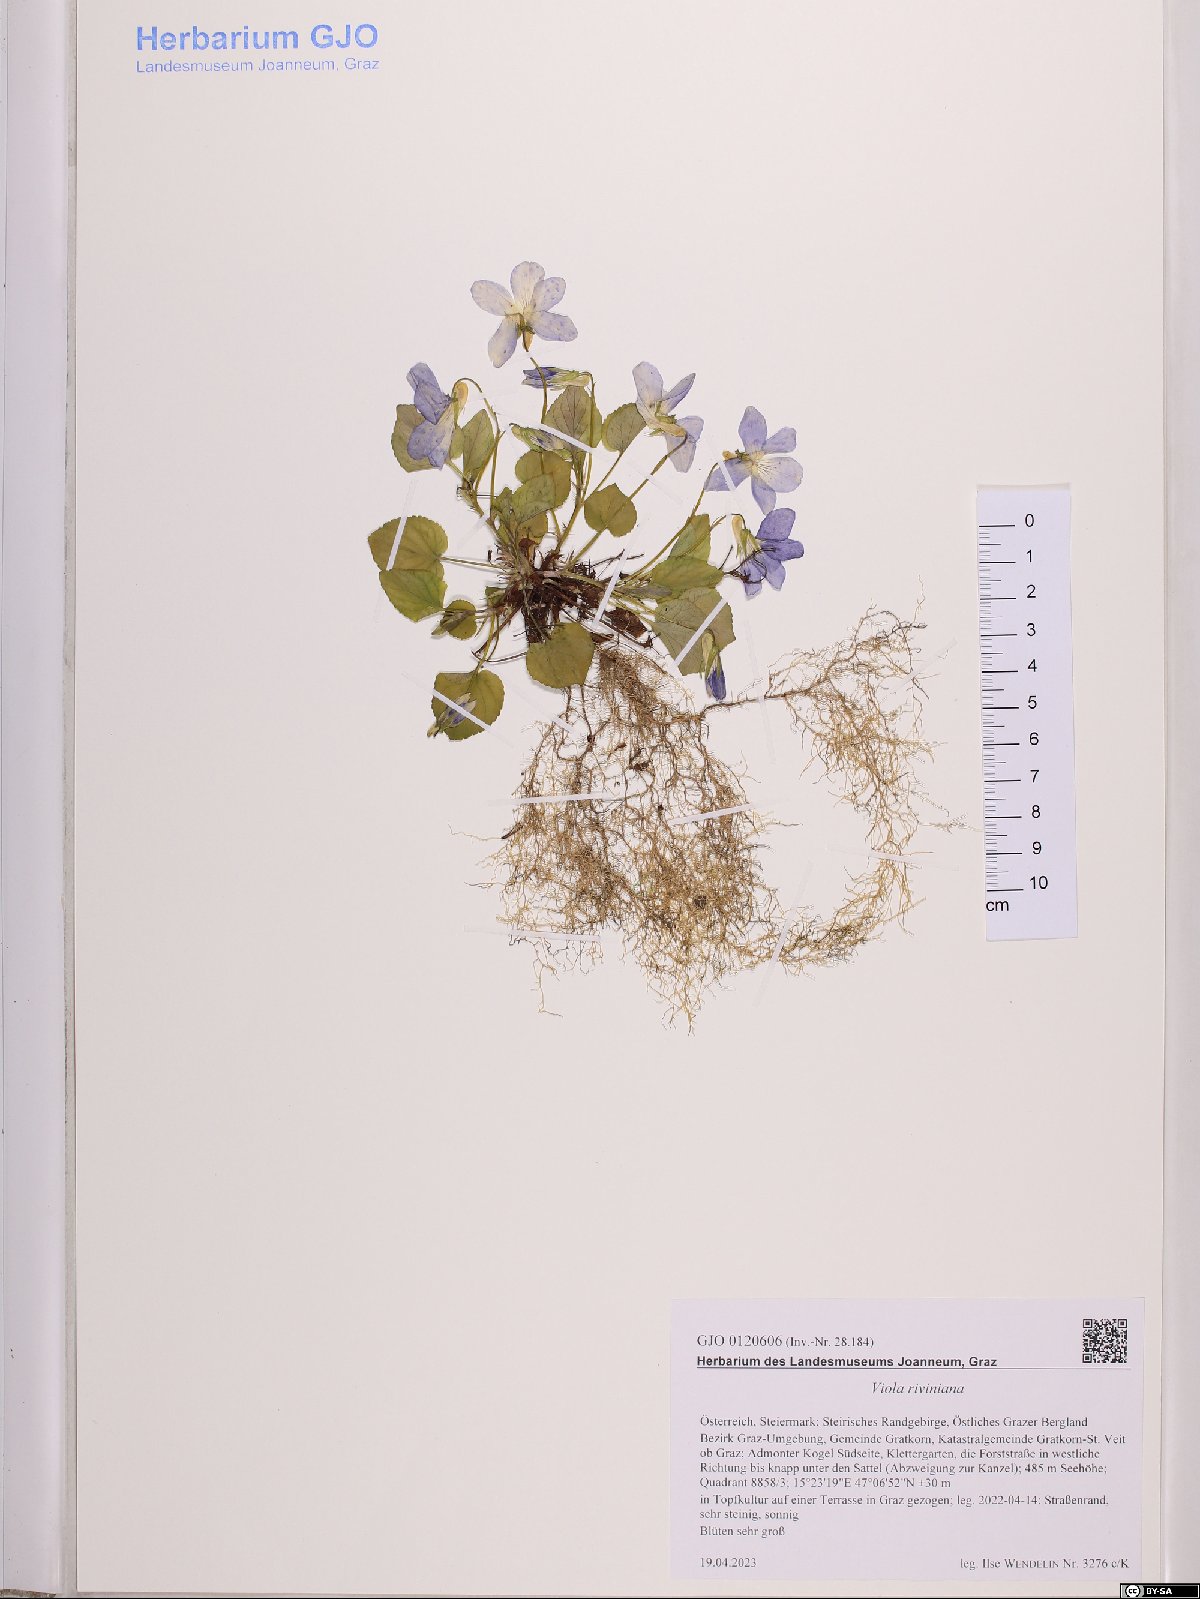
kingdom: Plantae
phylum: Tracheophyta
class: Magnoliopsida
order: Malpighiales
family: Violaceae
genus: Viola
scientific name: Viola riviniana
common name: Common dog-violet
